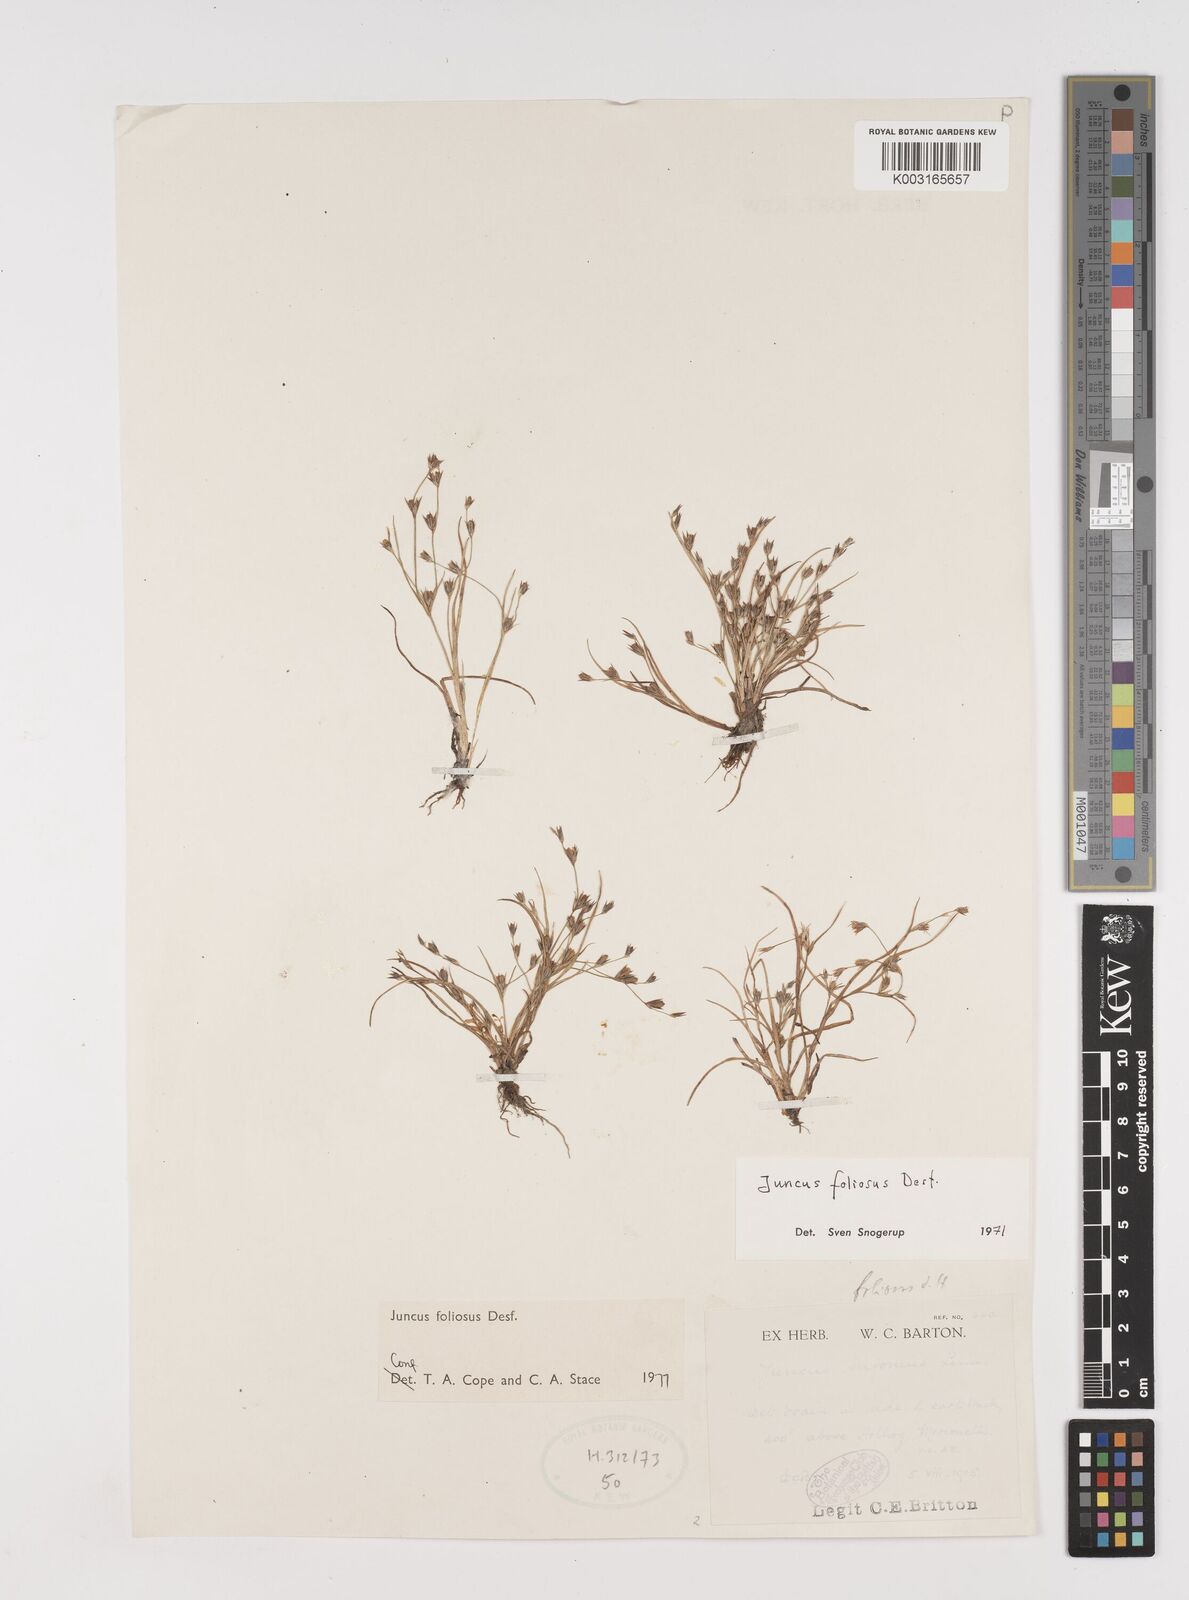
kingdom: Plantae
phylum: Tracheophyta
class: Liliopsida
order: Poales
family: Juncaceae
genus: Juncus
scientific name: Juncus foliosus
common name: Leafy rush
